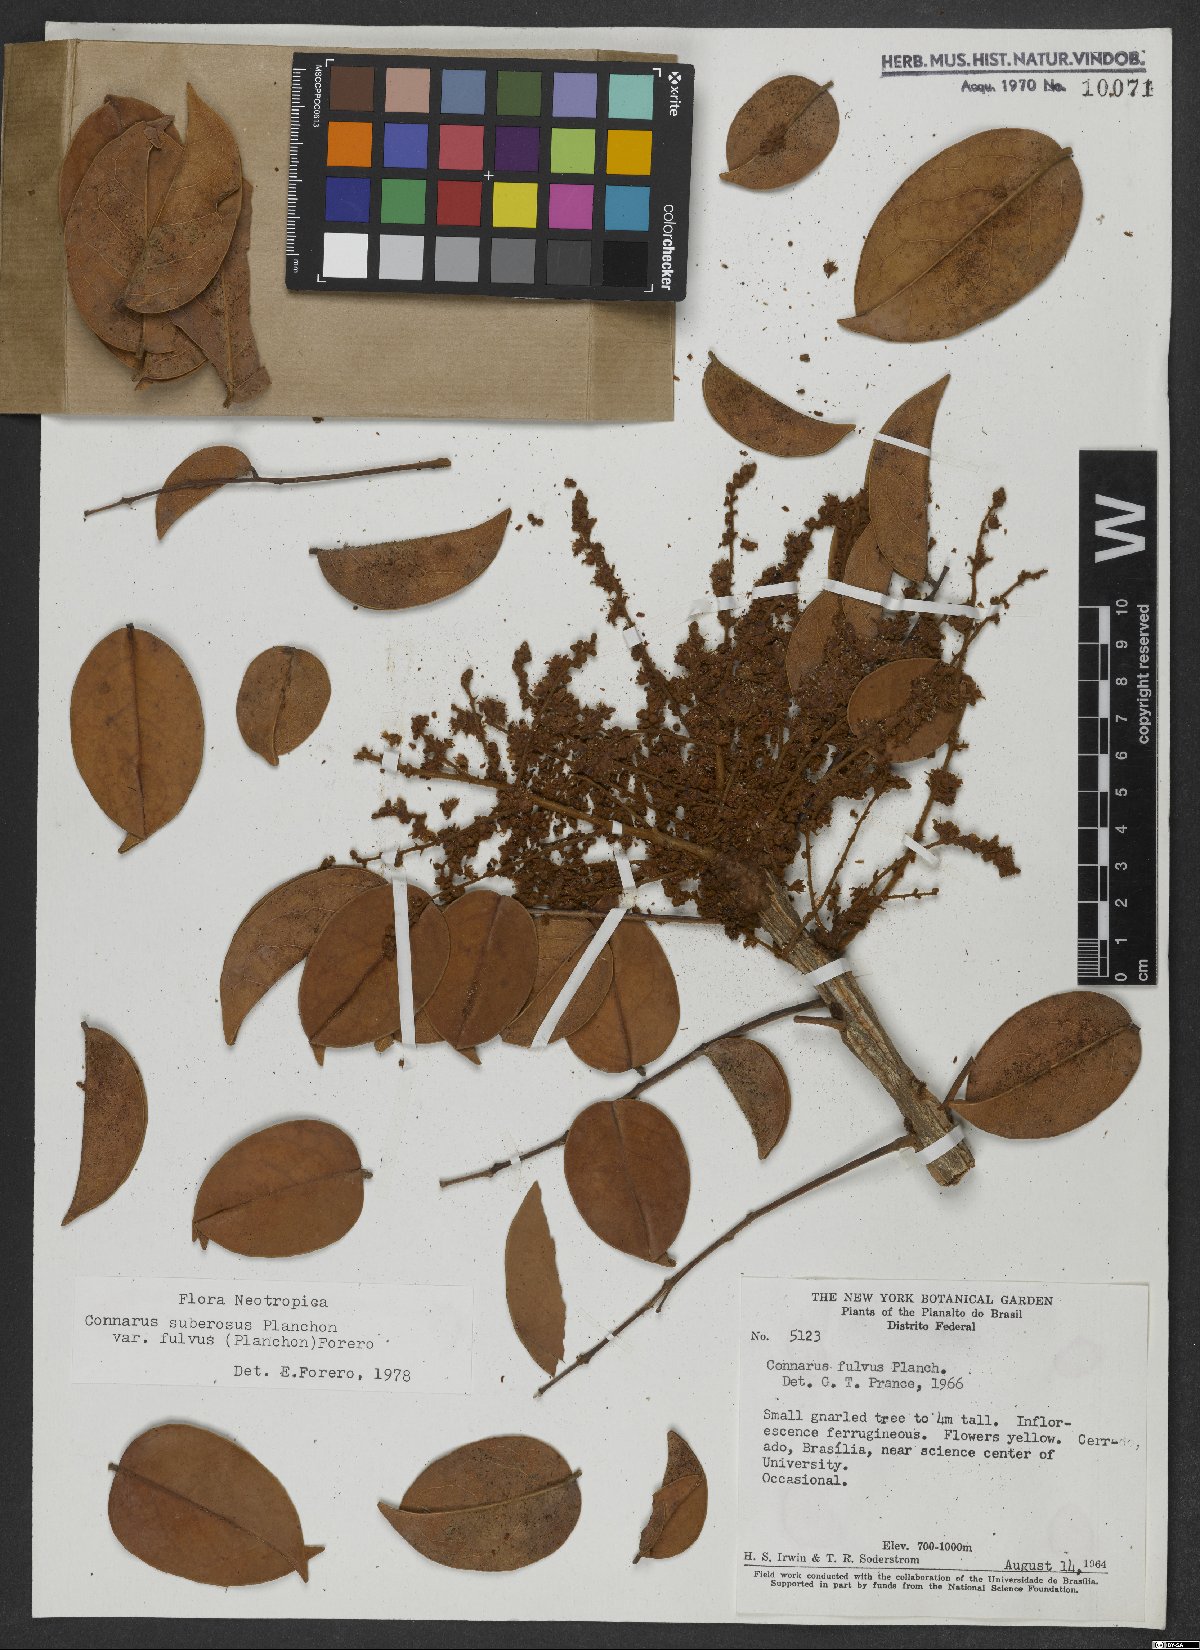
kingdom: Plantae
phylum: Tracheophyta
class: Magnoliopsida
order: Oxalidales
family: Connaraceae
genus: Connarus
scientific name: Connarus suberosus
